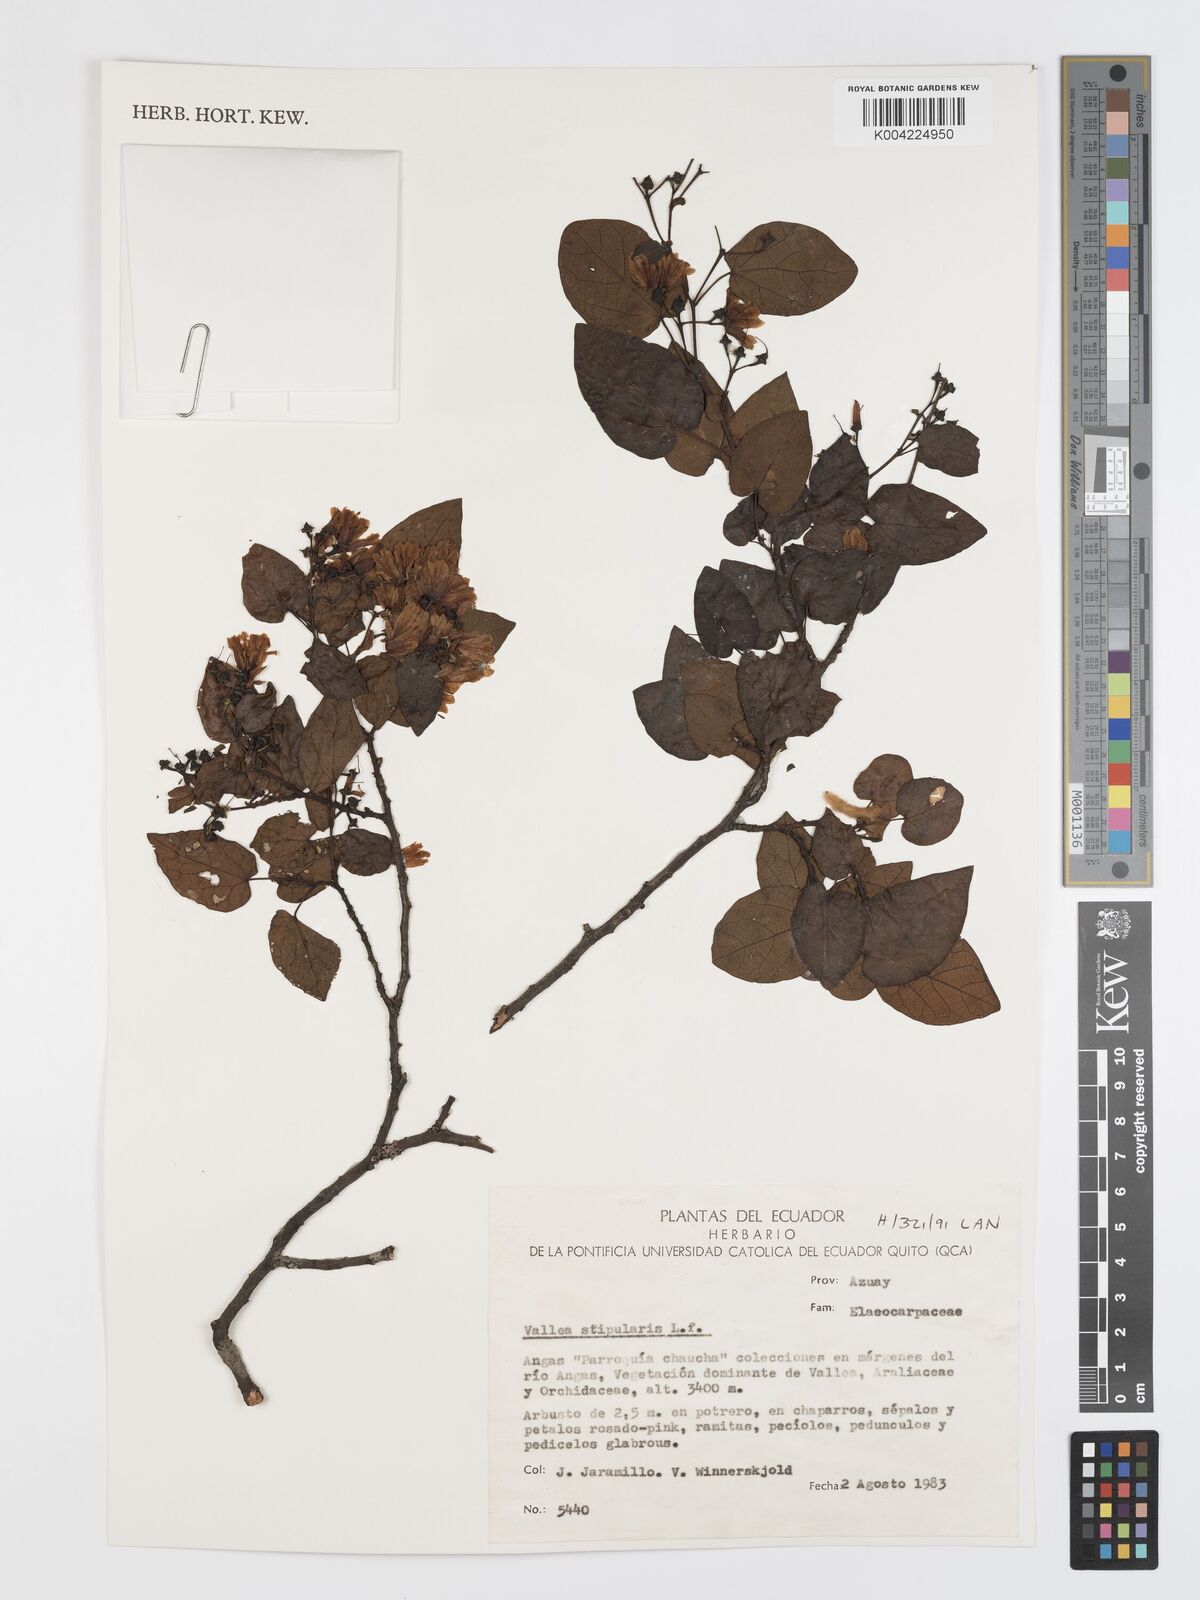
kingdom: Plantae
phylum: Tracheophyta
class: Magnoliopsida
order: Oxalidales
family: Elaeocarpaceae
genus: Vallea
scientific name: Vallea stipularis
